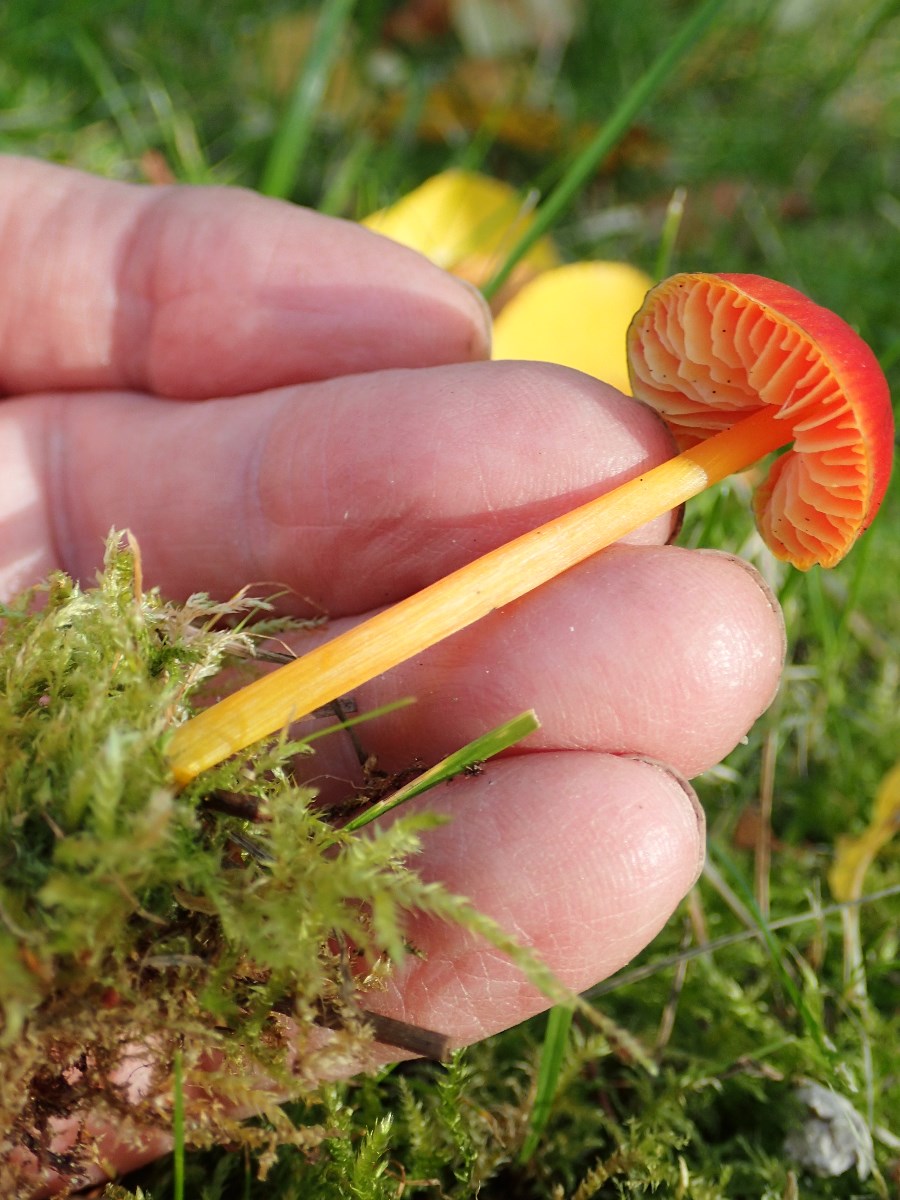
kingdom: Fungi
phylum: Basidiomycota
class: Agaricomycetes
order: Agaricales
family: Hygrophoraceae
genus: Hygrocybe
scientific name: Hygrocybe conica
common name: kegle-vokshat
